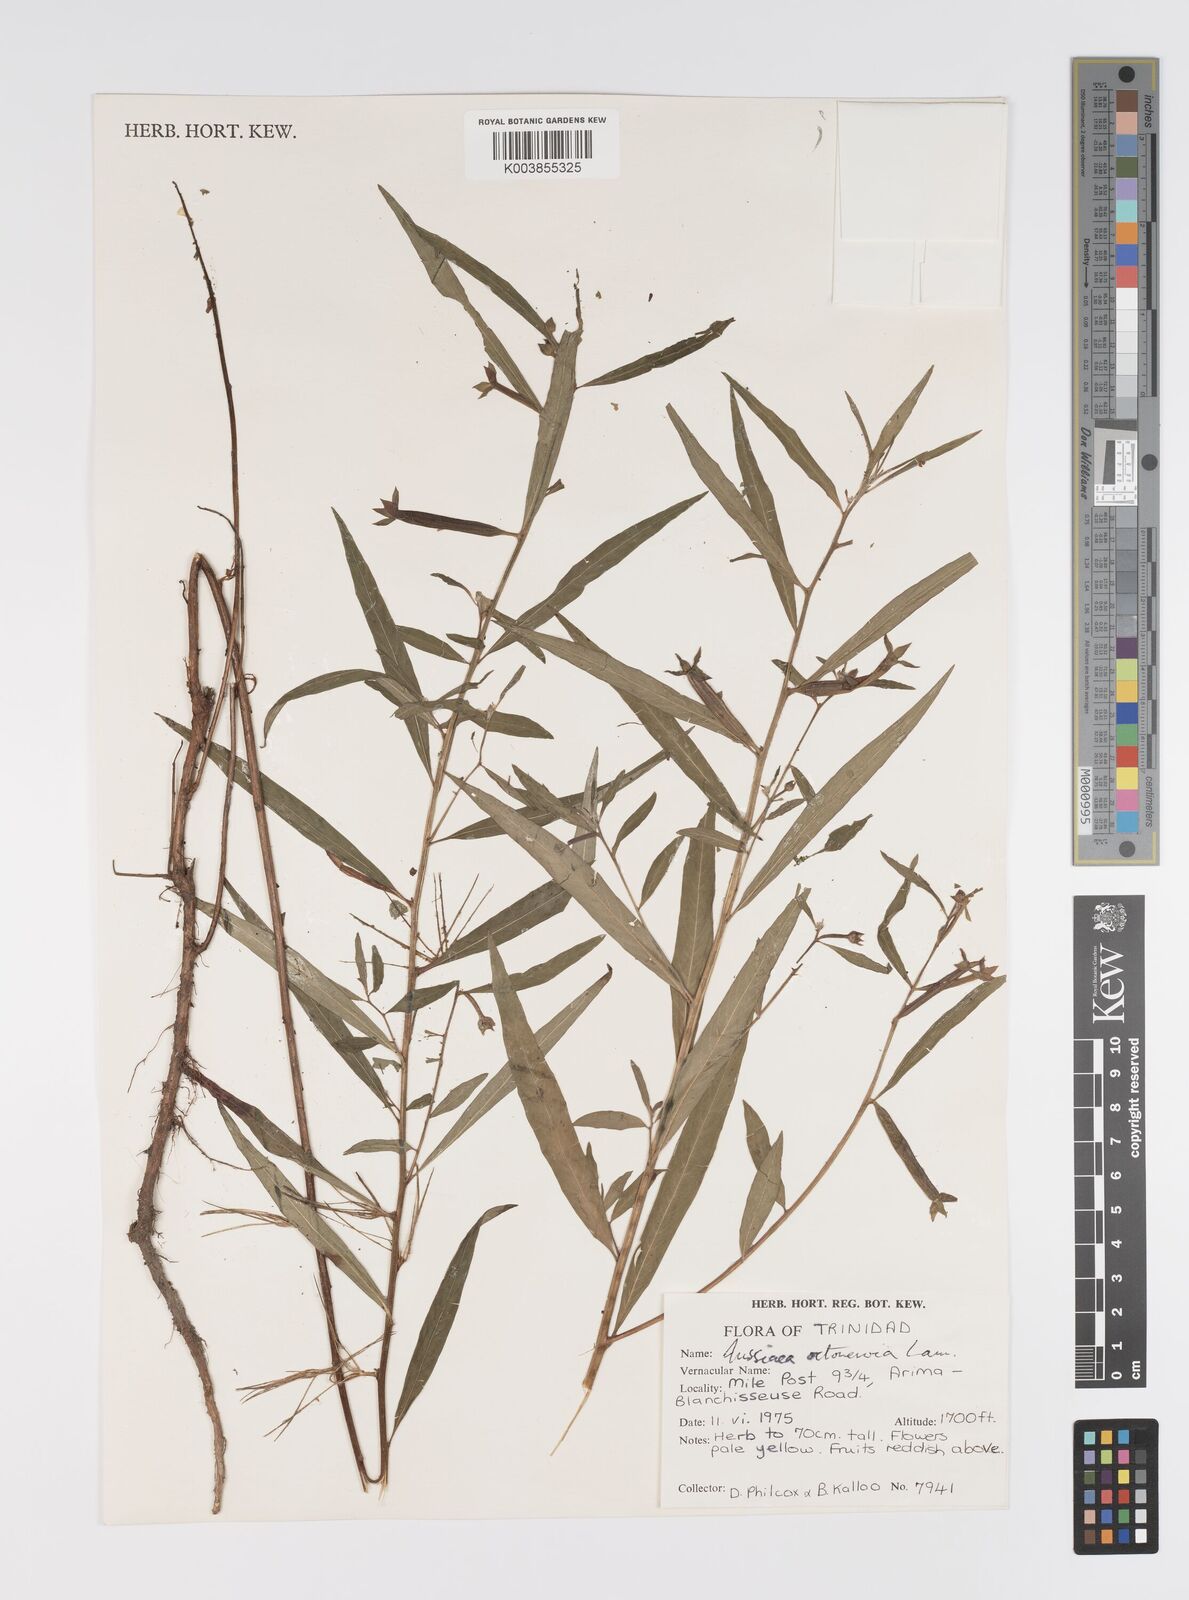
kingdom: Plantae
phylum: Tracheophyta
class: Magnoliopsida
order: Myrtales
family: Onagraceae
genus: Ludwigia
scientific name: Ludwigia
